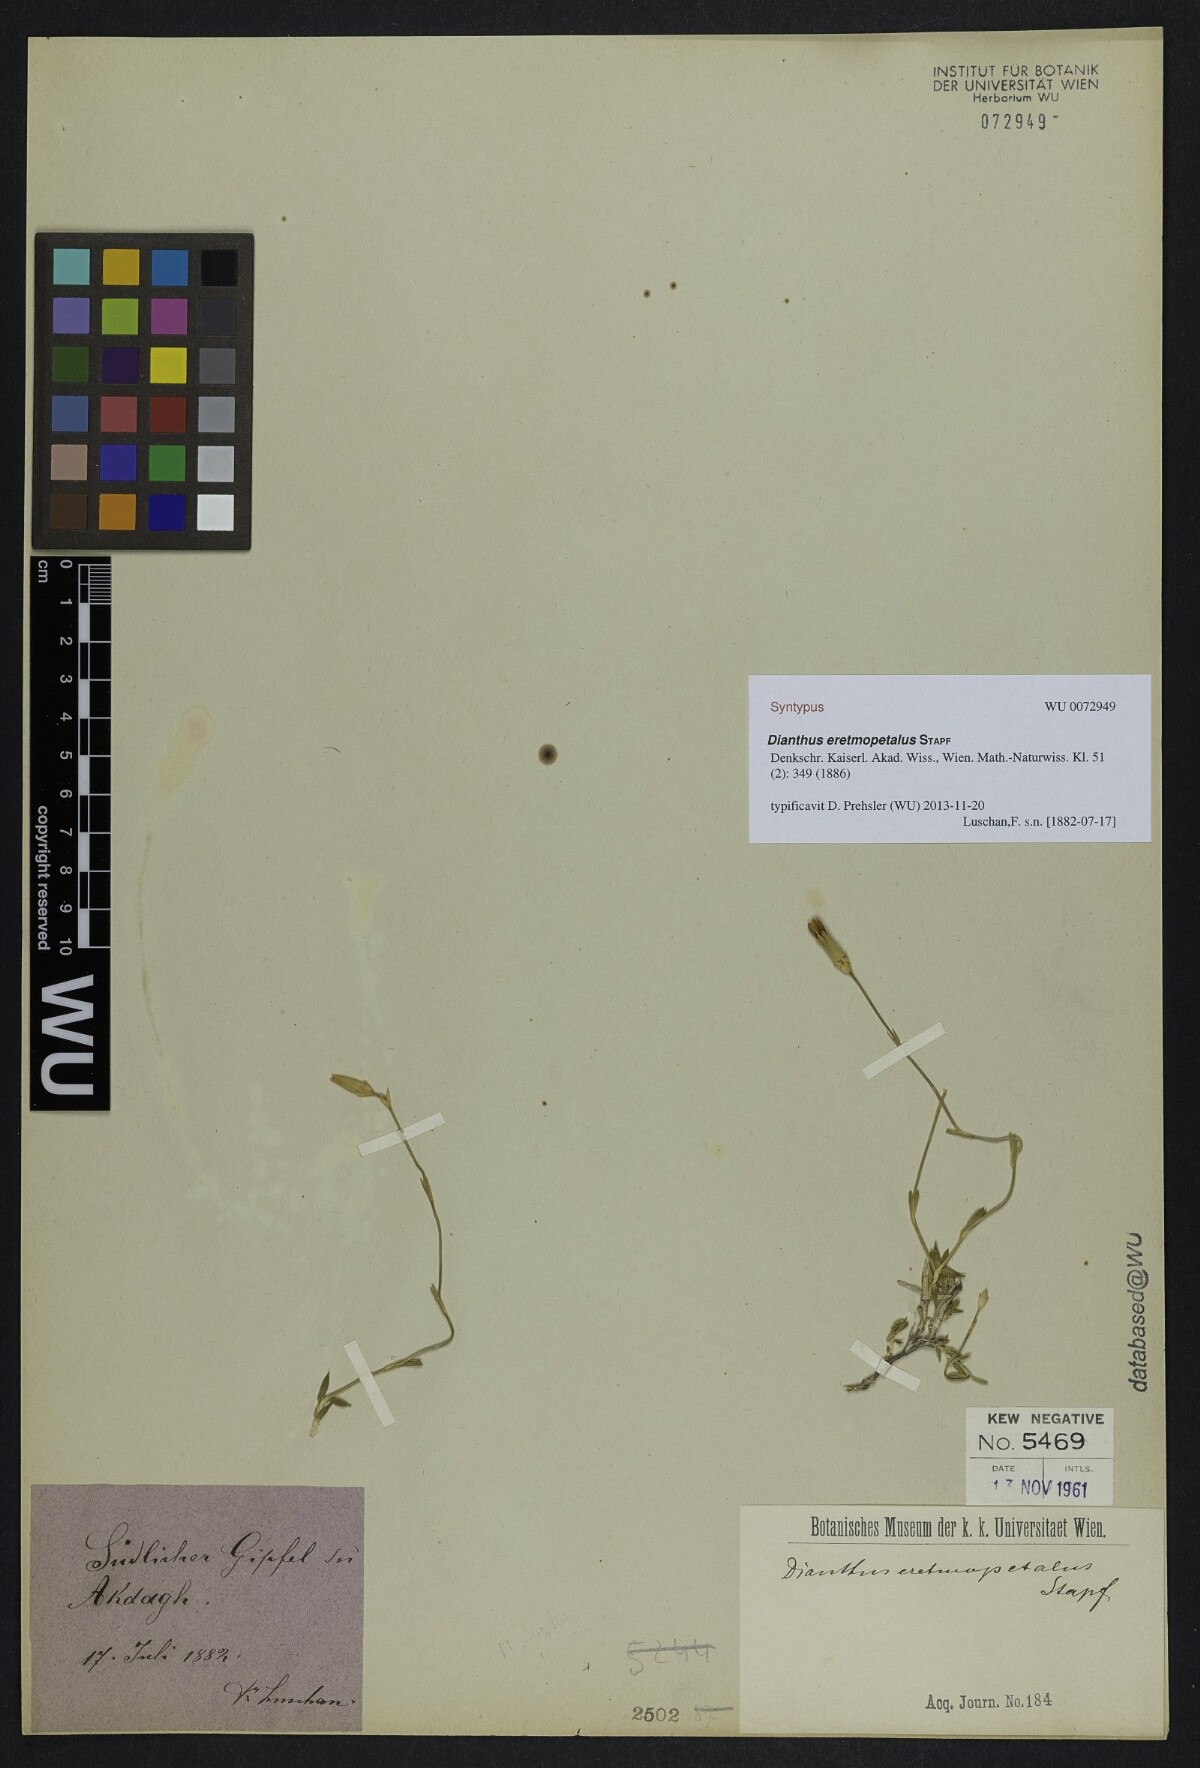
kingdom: Plantae
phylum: Tracheophyta
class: Magnoliopsida
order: Caryophyllales
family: Caryophyllaceae
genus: Dianthus
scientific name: Dianthus eretmopetalus
